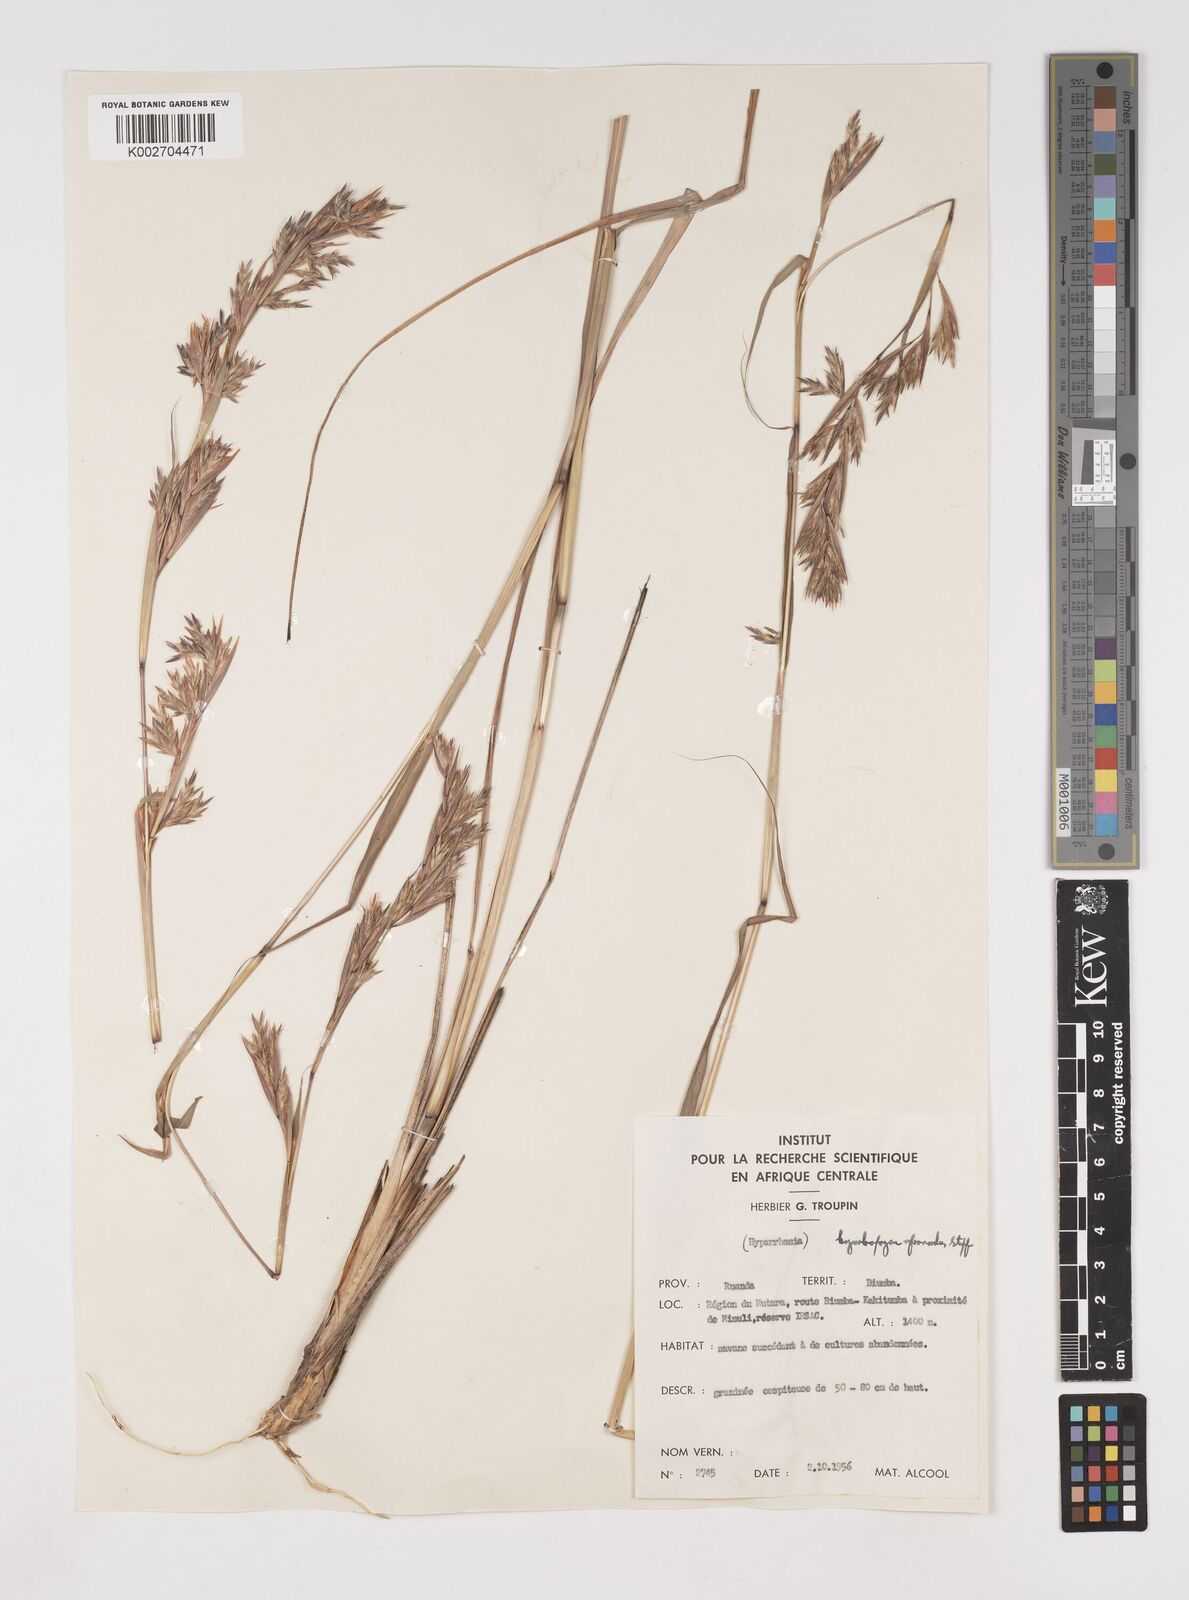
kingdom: Plantae
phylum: Tracheophyta
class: Liliopsida
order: Poales
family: Poaceae
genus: Cymbopogon
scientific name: Cymbopogon nardus
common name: Giant turpentine grass
